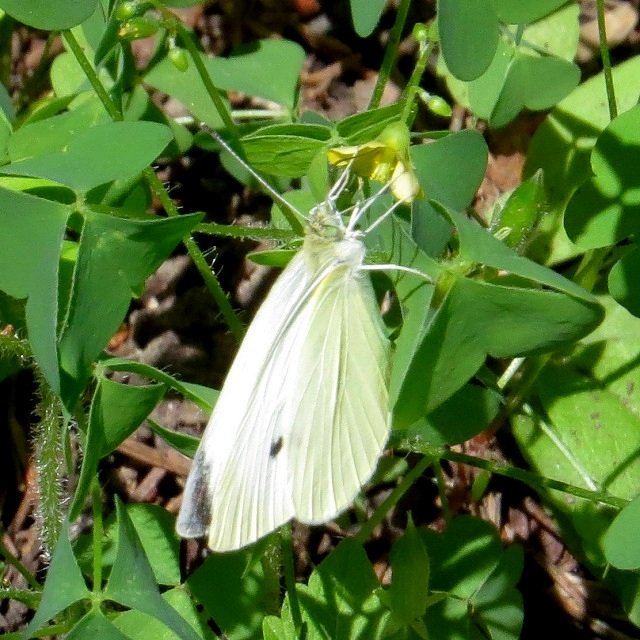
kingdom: Animalia
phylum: Arthropoda
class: Insecta
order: Lepidoptera
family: Pieridae
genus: Pieris
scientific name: Pieris rapae
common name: Cabbage White
